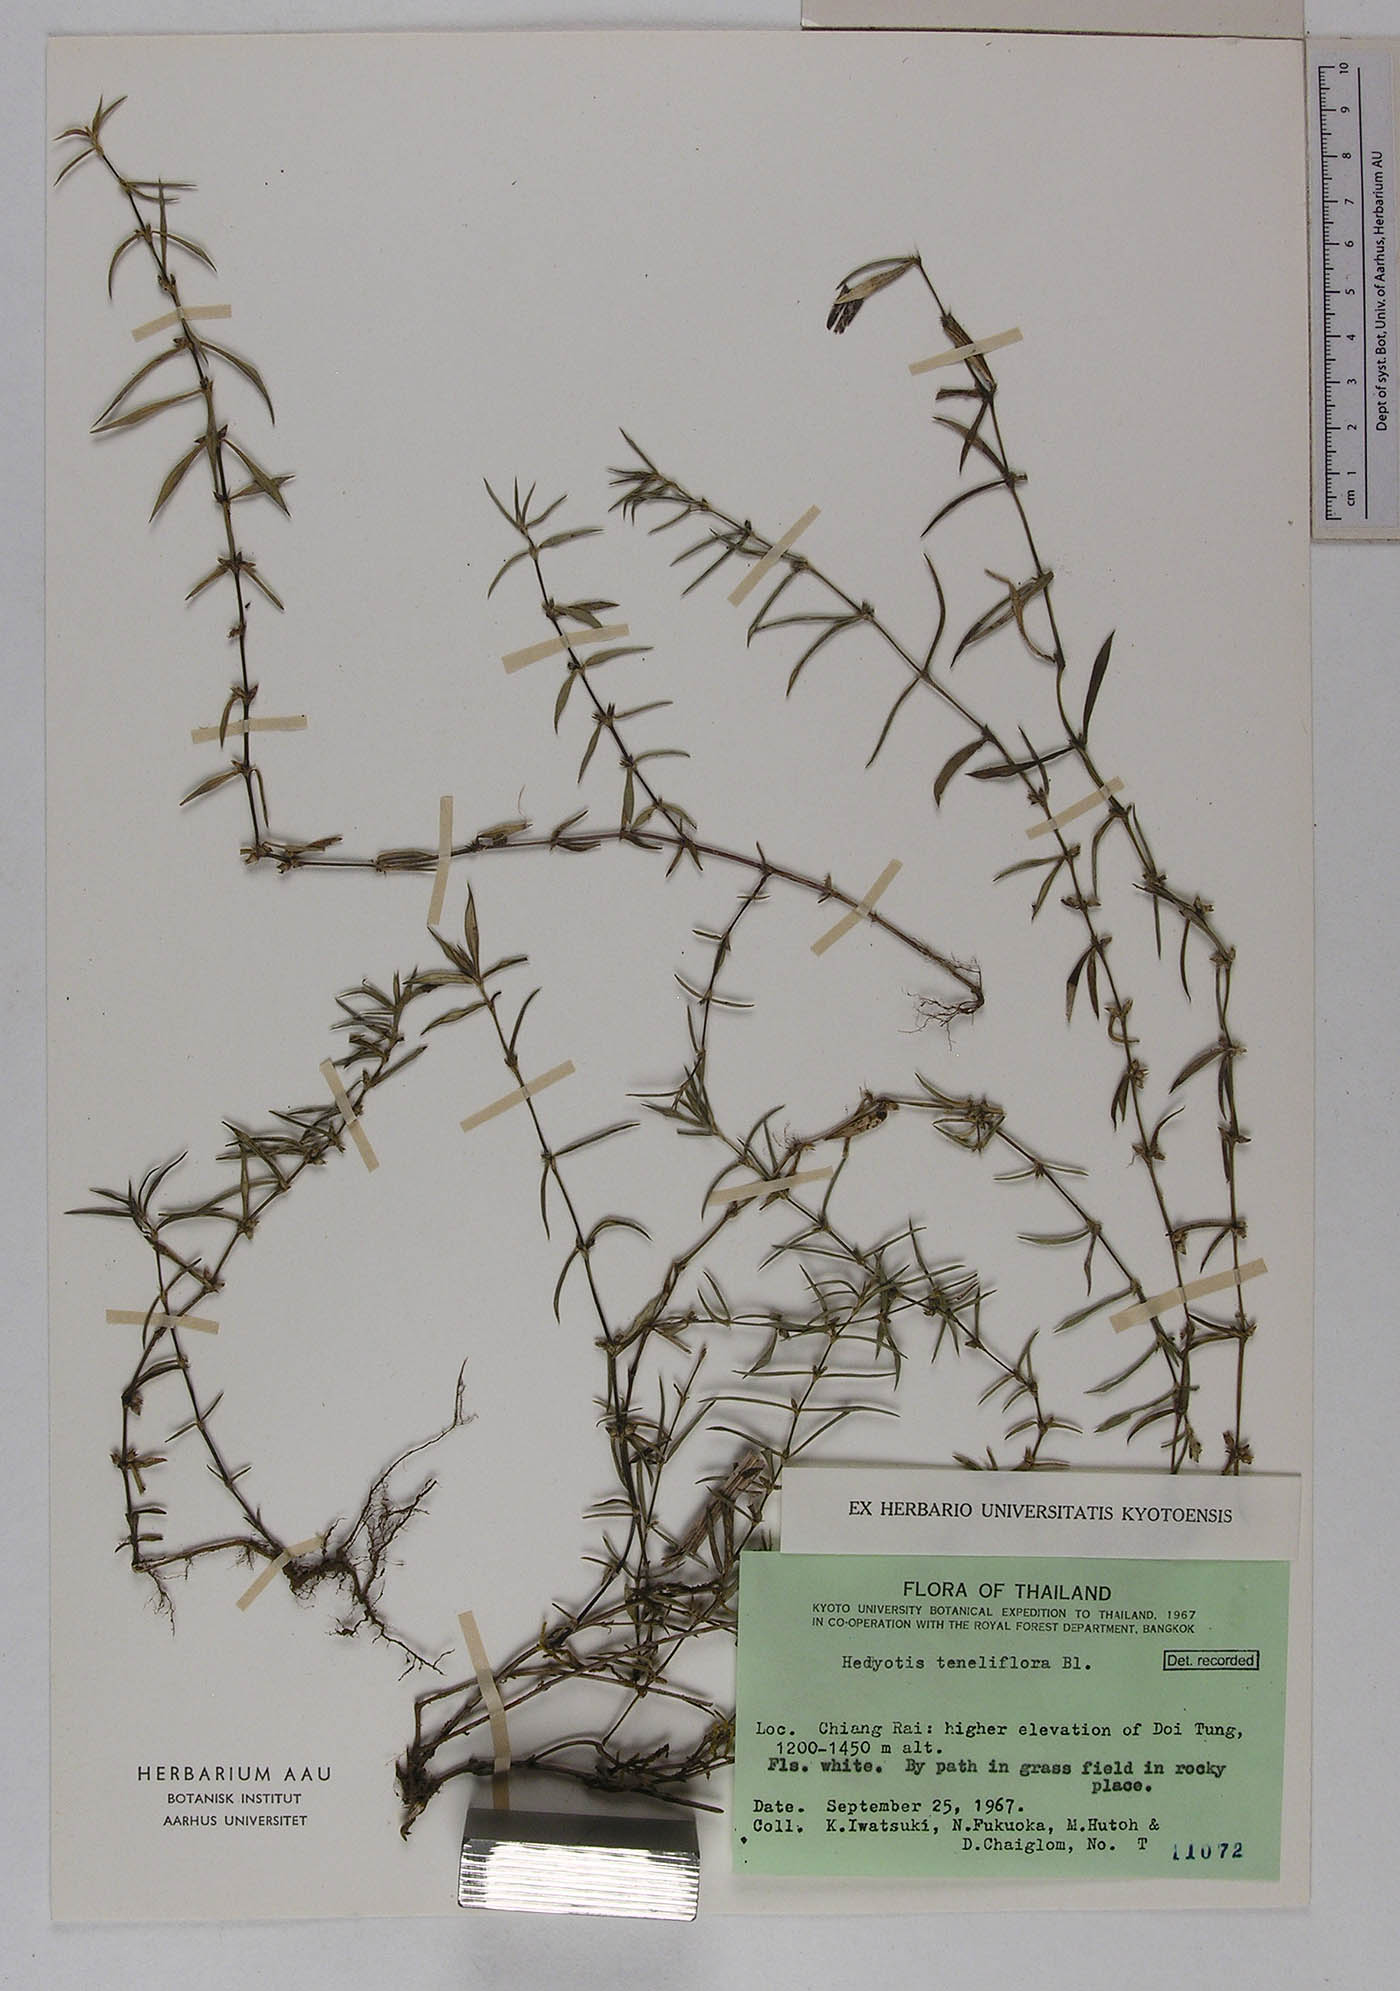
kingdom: Plantae
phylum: Tracheophyta
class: Magnoliopsida
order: Gentianales
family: Rubiaceae
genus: Scleromitrion
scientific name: Scleromitrion tenelliflorum
